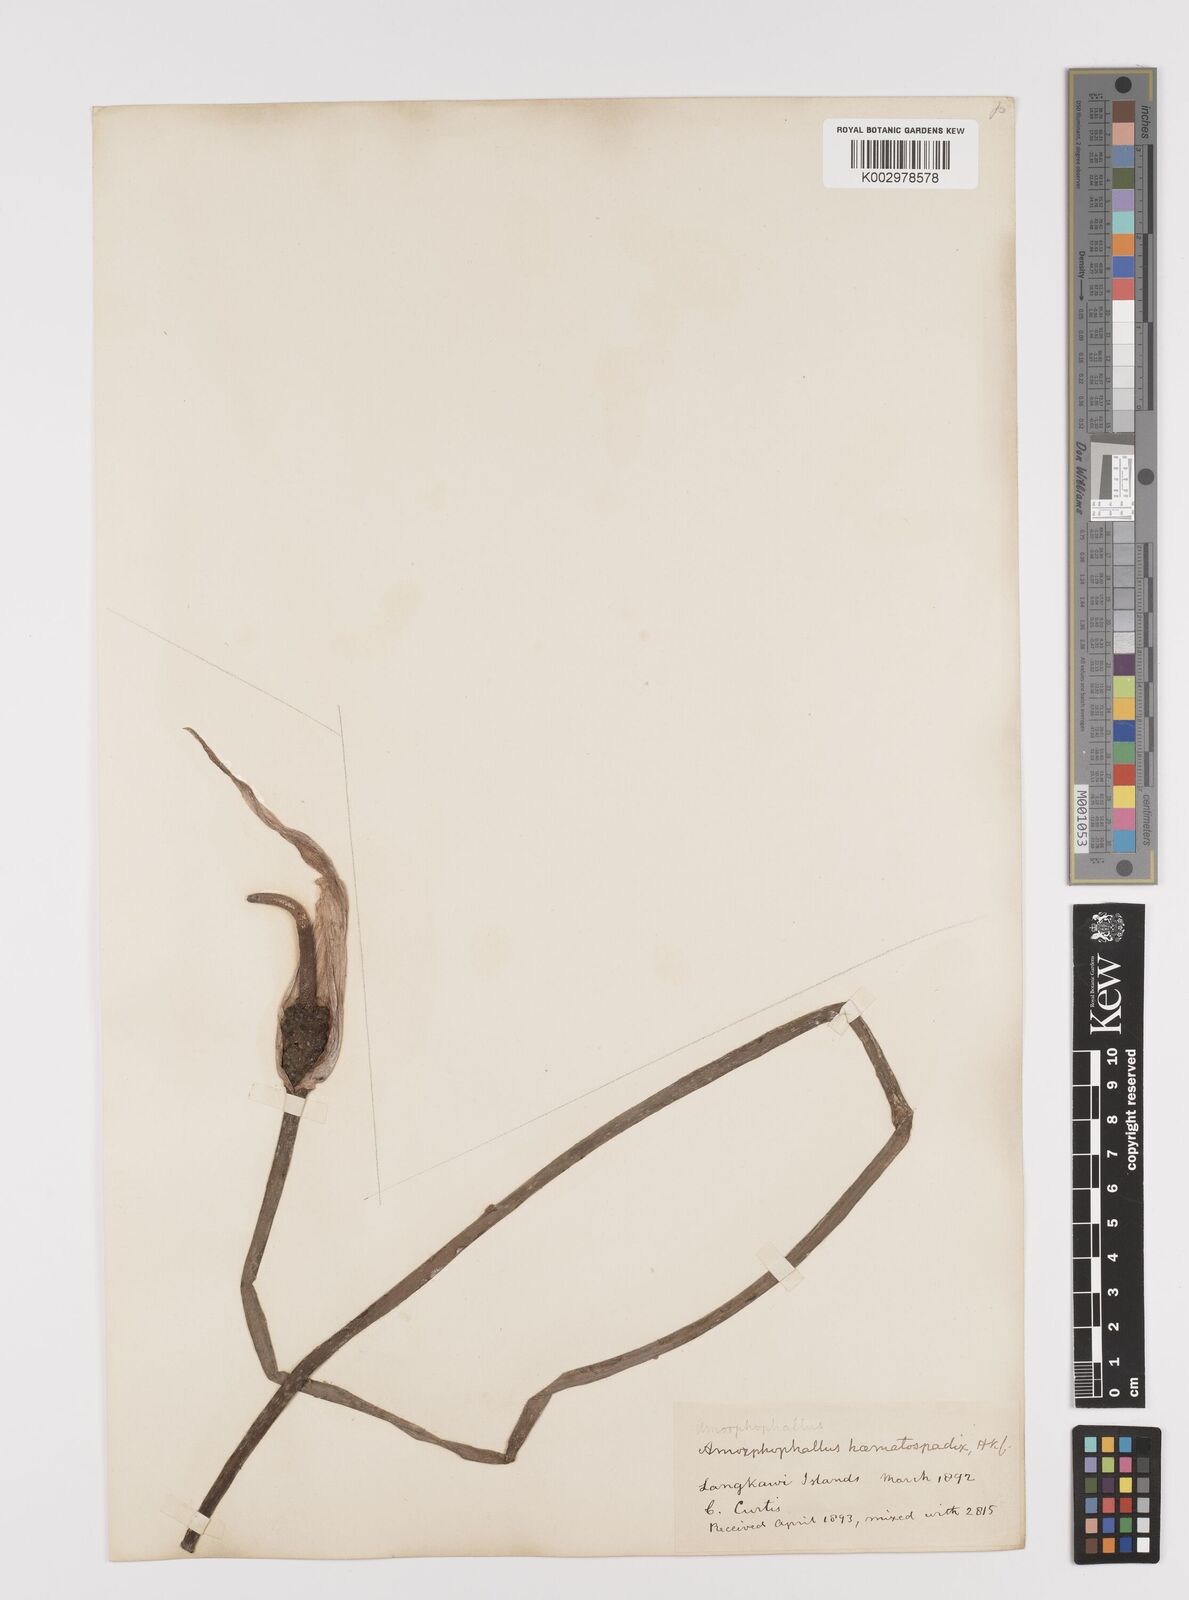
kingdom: Plantae
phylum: Tracheophyta
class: Liliopsida
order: Alismatales
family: Araceae
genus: Amorphophallus
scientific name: Amorphophallus haematospadix
